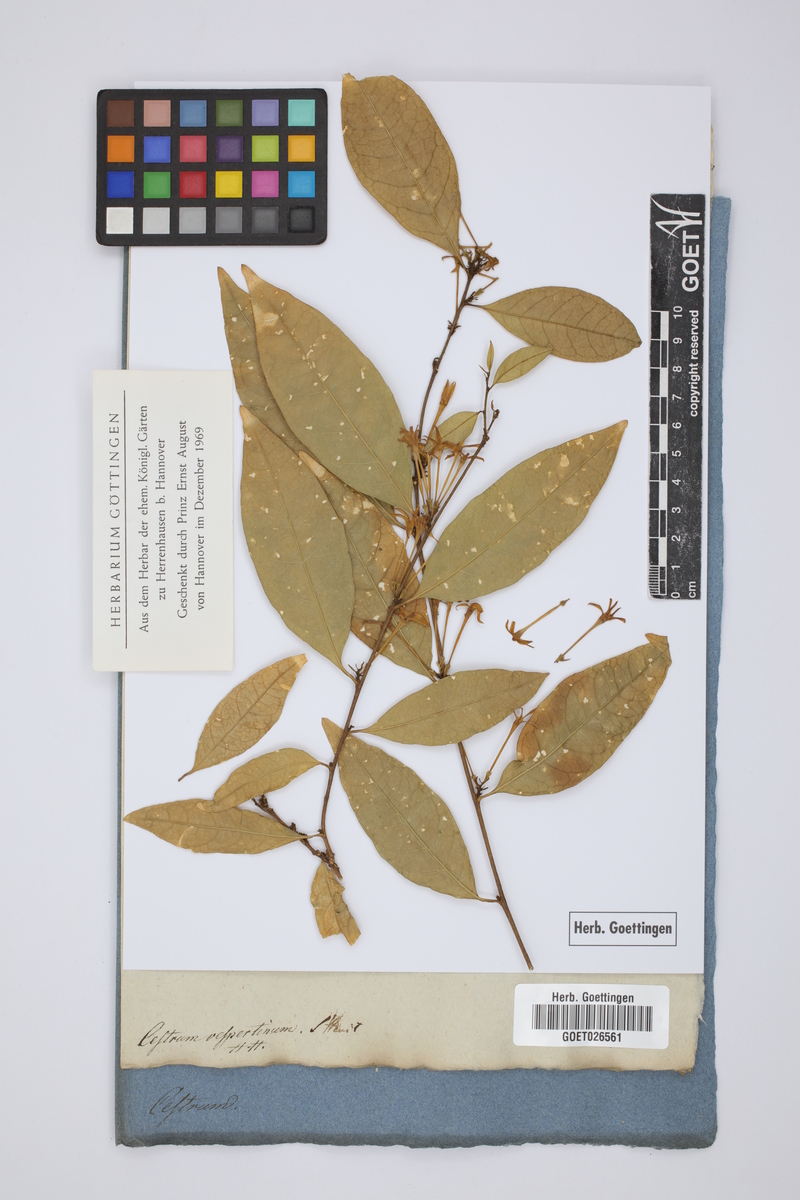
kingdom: Plantae
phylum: Tracheophyta
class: Magnoliopsida
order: Solanales
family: Solanaceae
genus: Cestrum
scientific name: Cestrum alternifolium
